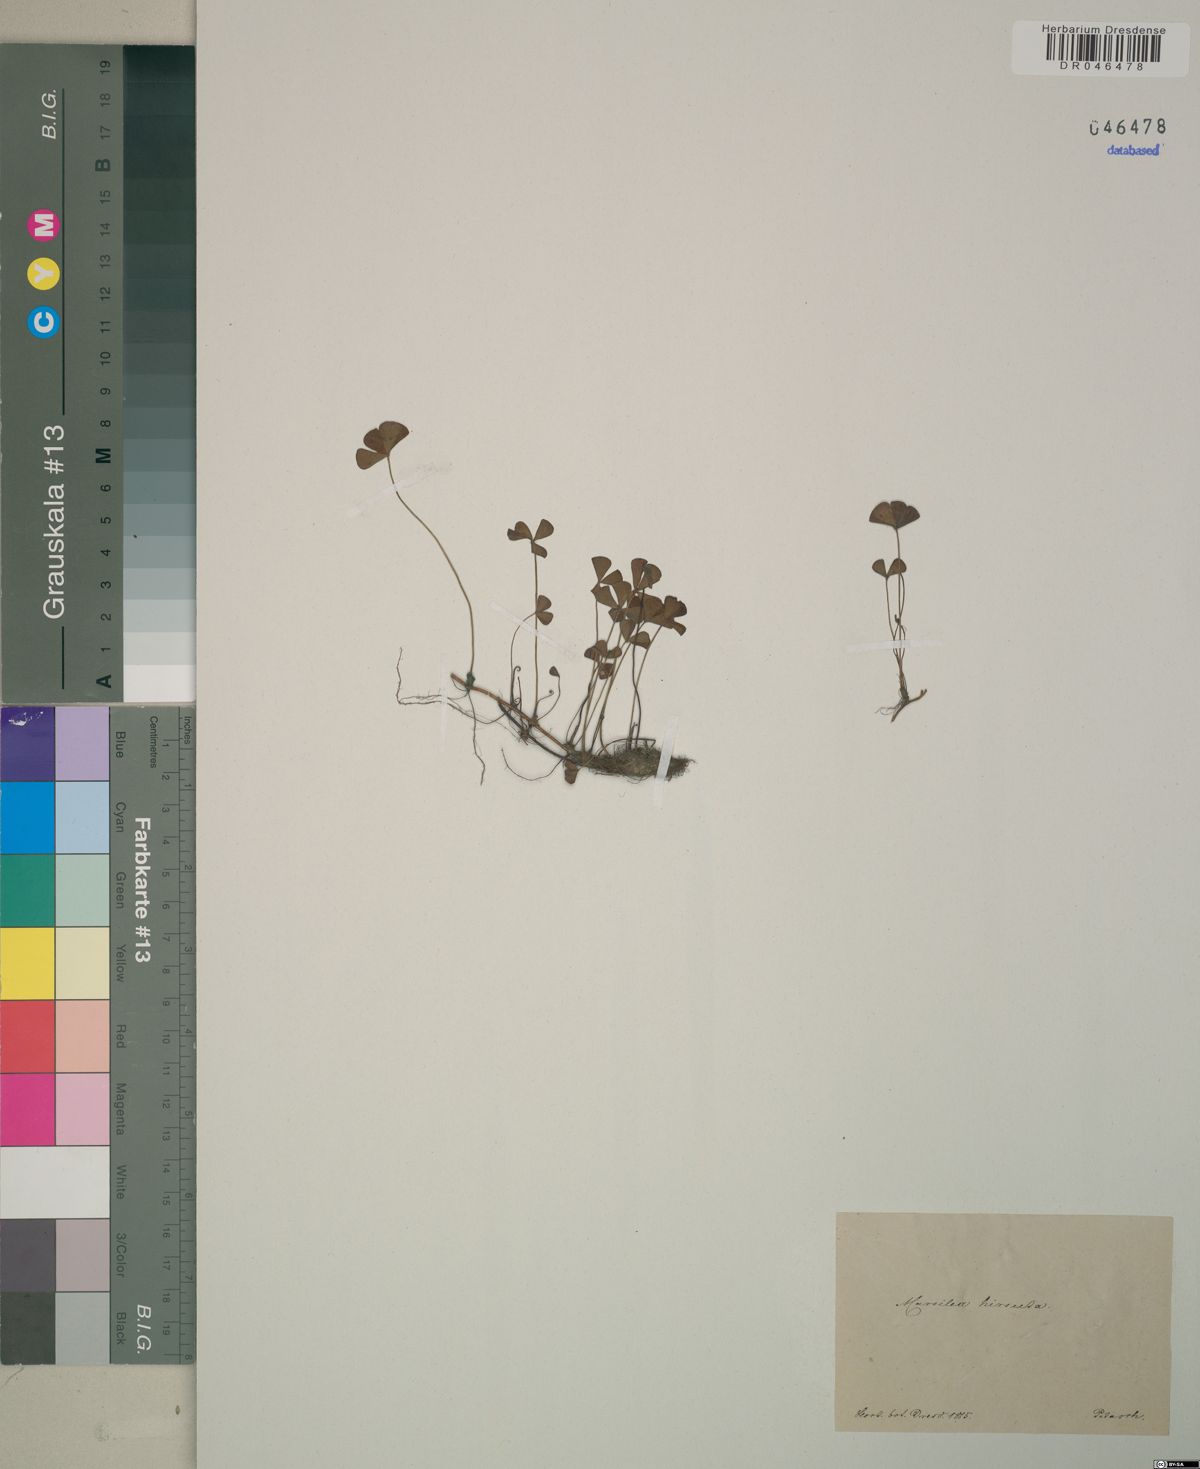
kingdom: Plantae
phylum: Tracheophyta
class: Polypodiopsida
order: Salviniales
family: Marsileaceae
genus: Marsilea
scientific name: Marsilea hirsuta
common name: Rough waterclover
